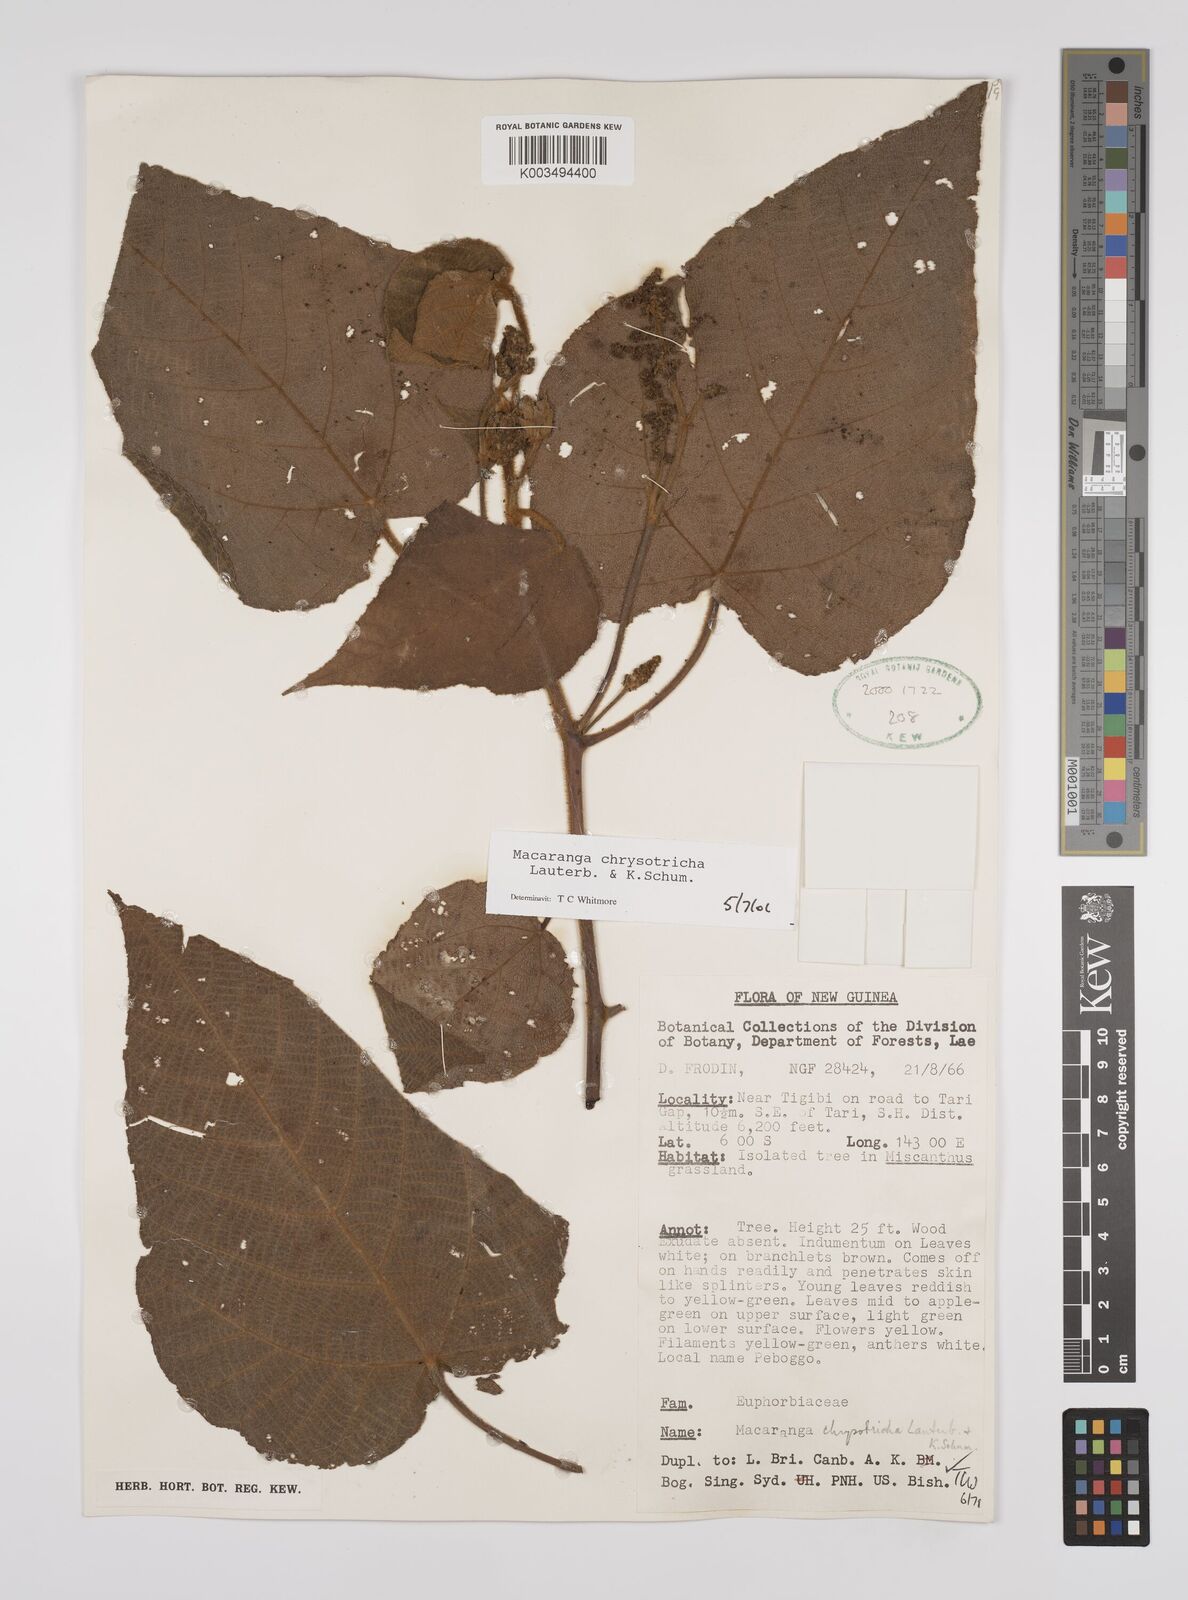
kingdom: Plantae
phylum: Tracheophyta
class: Magnoliopsida
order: Malpighiales
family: Euphorbiaceae
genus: Macaranga
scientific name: Macaranga chrysotricha
